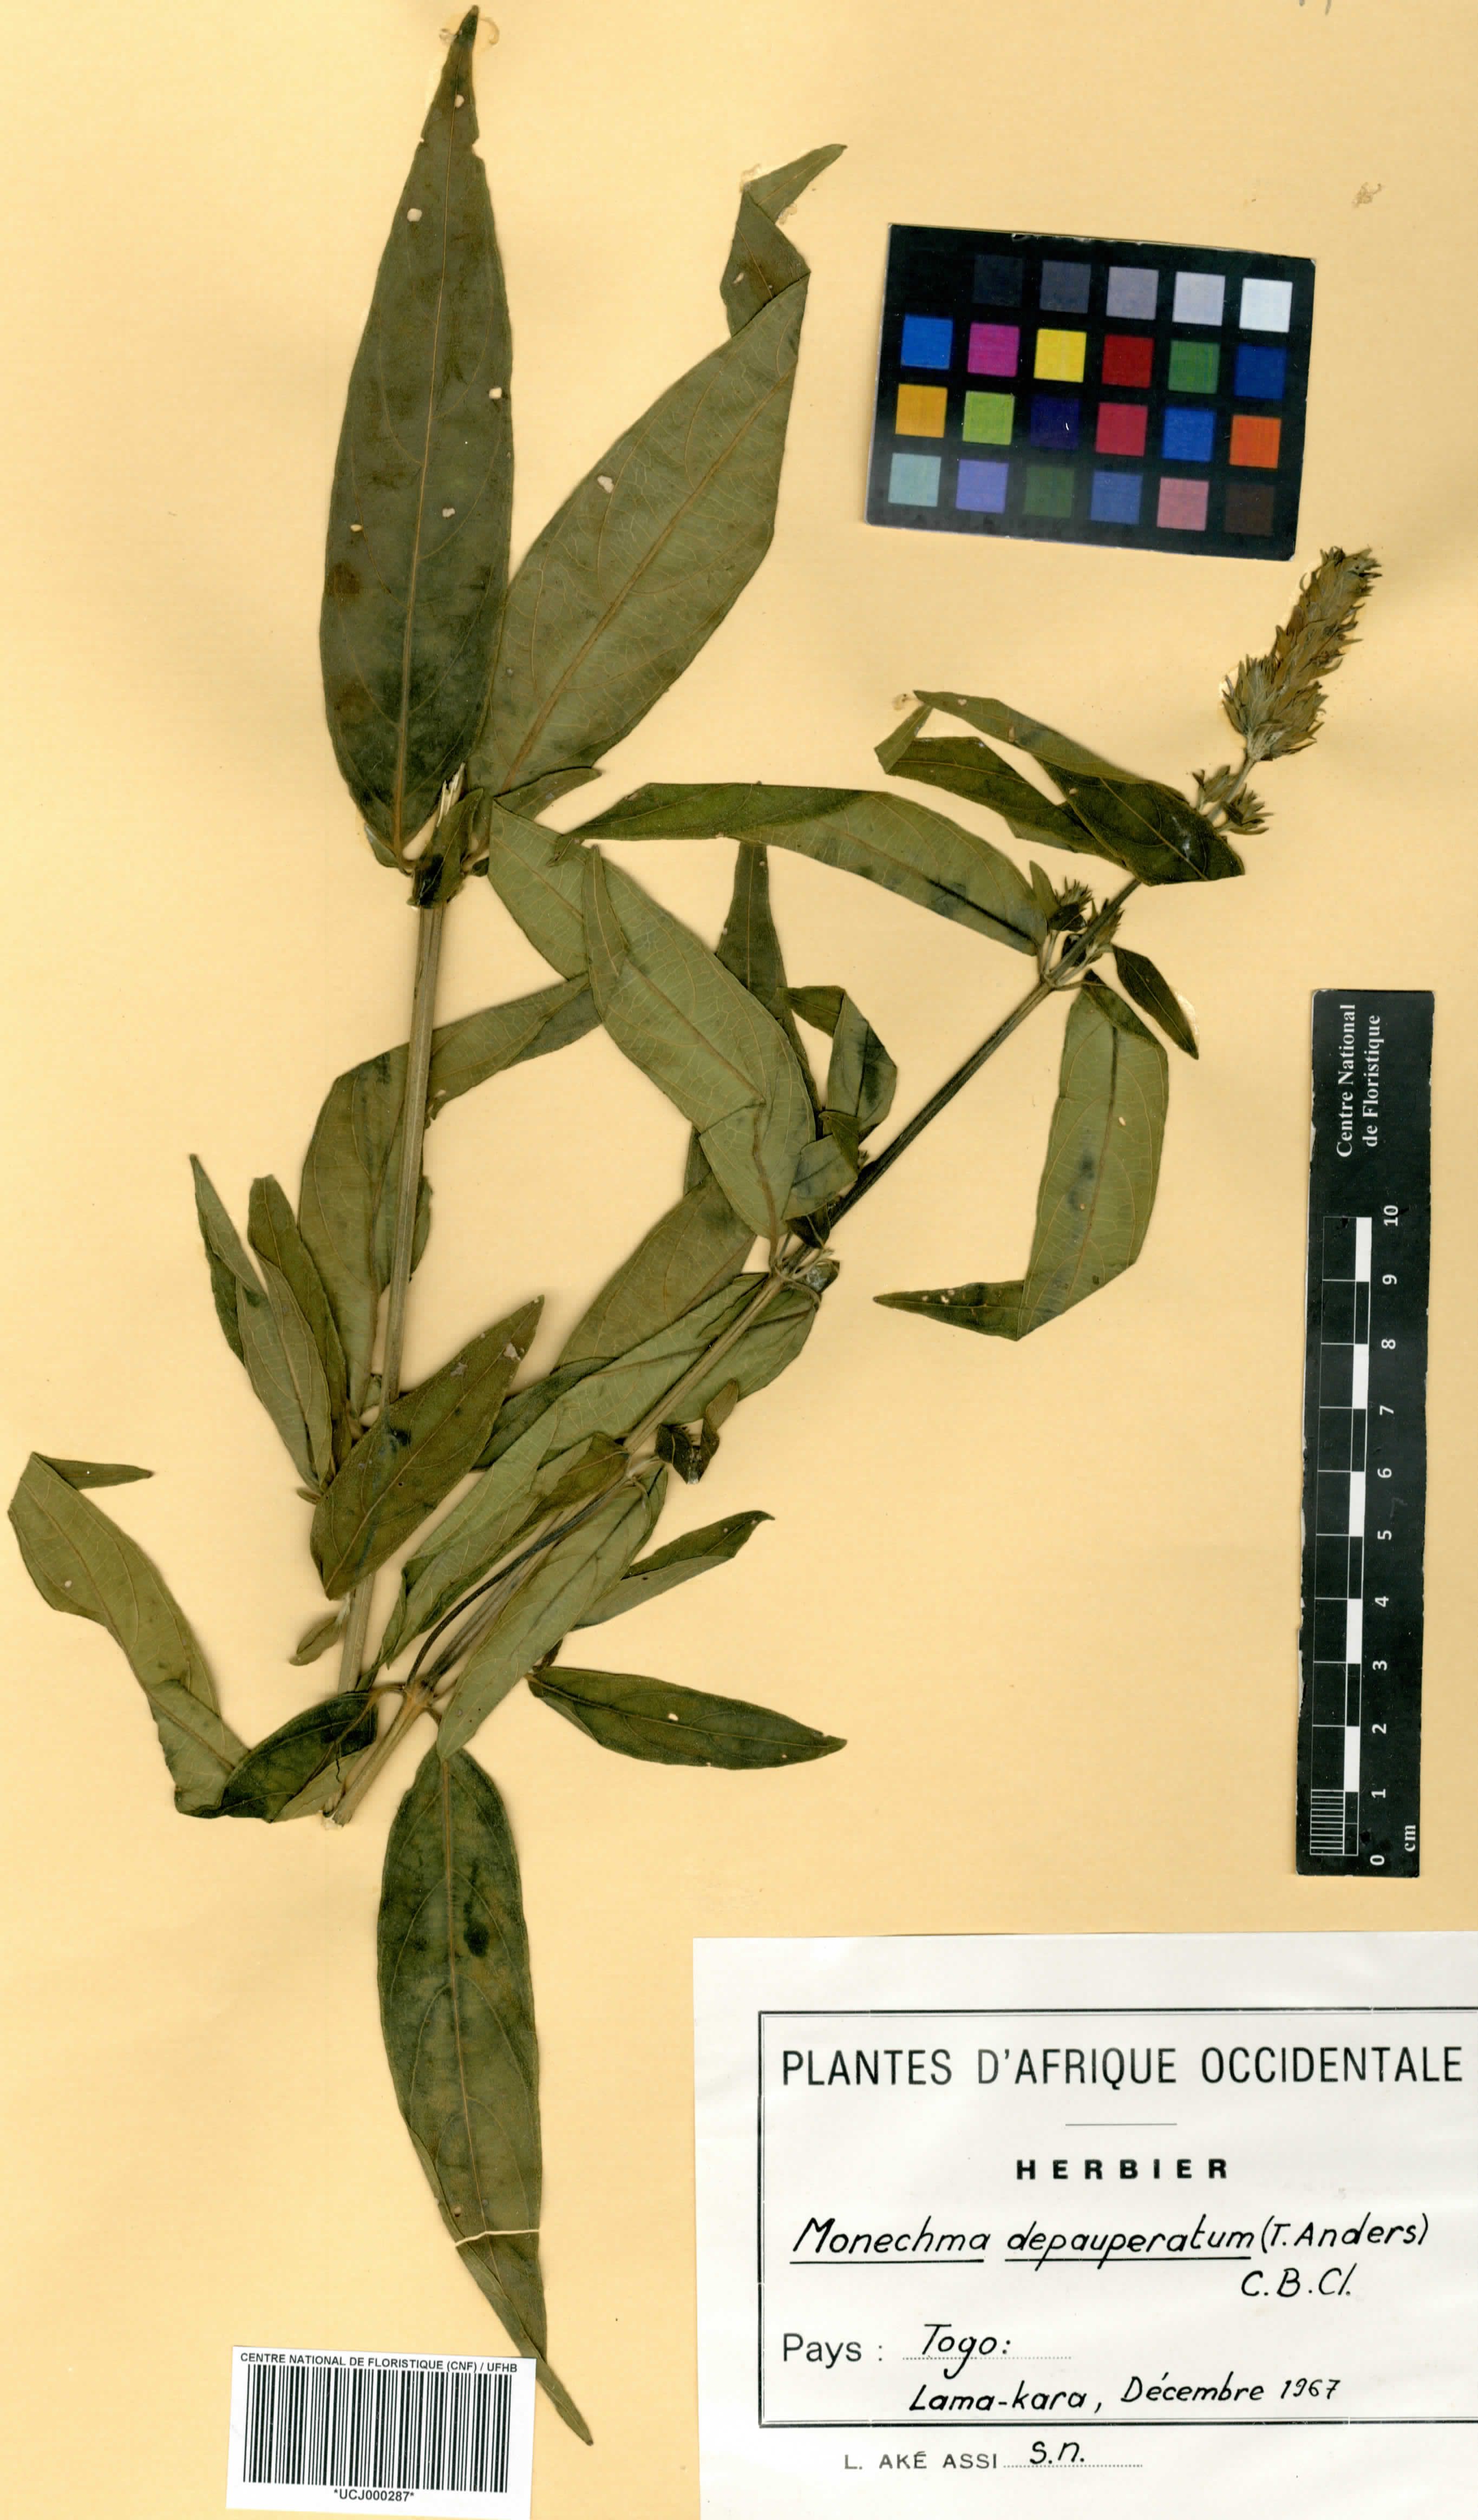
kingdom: Plantae
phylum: Tracheophyta
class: Magnoliopsida
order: Lamiales
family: Acanthaceae
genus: Monechma
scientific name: Monechma depauperatum
